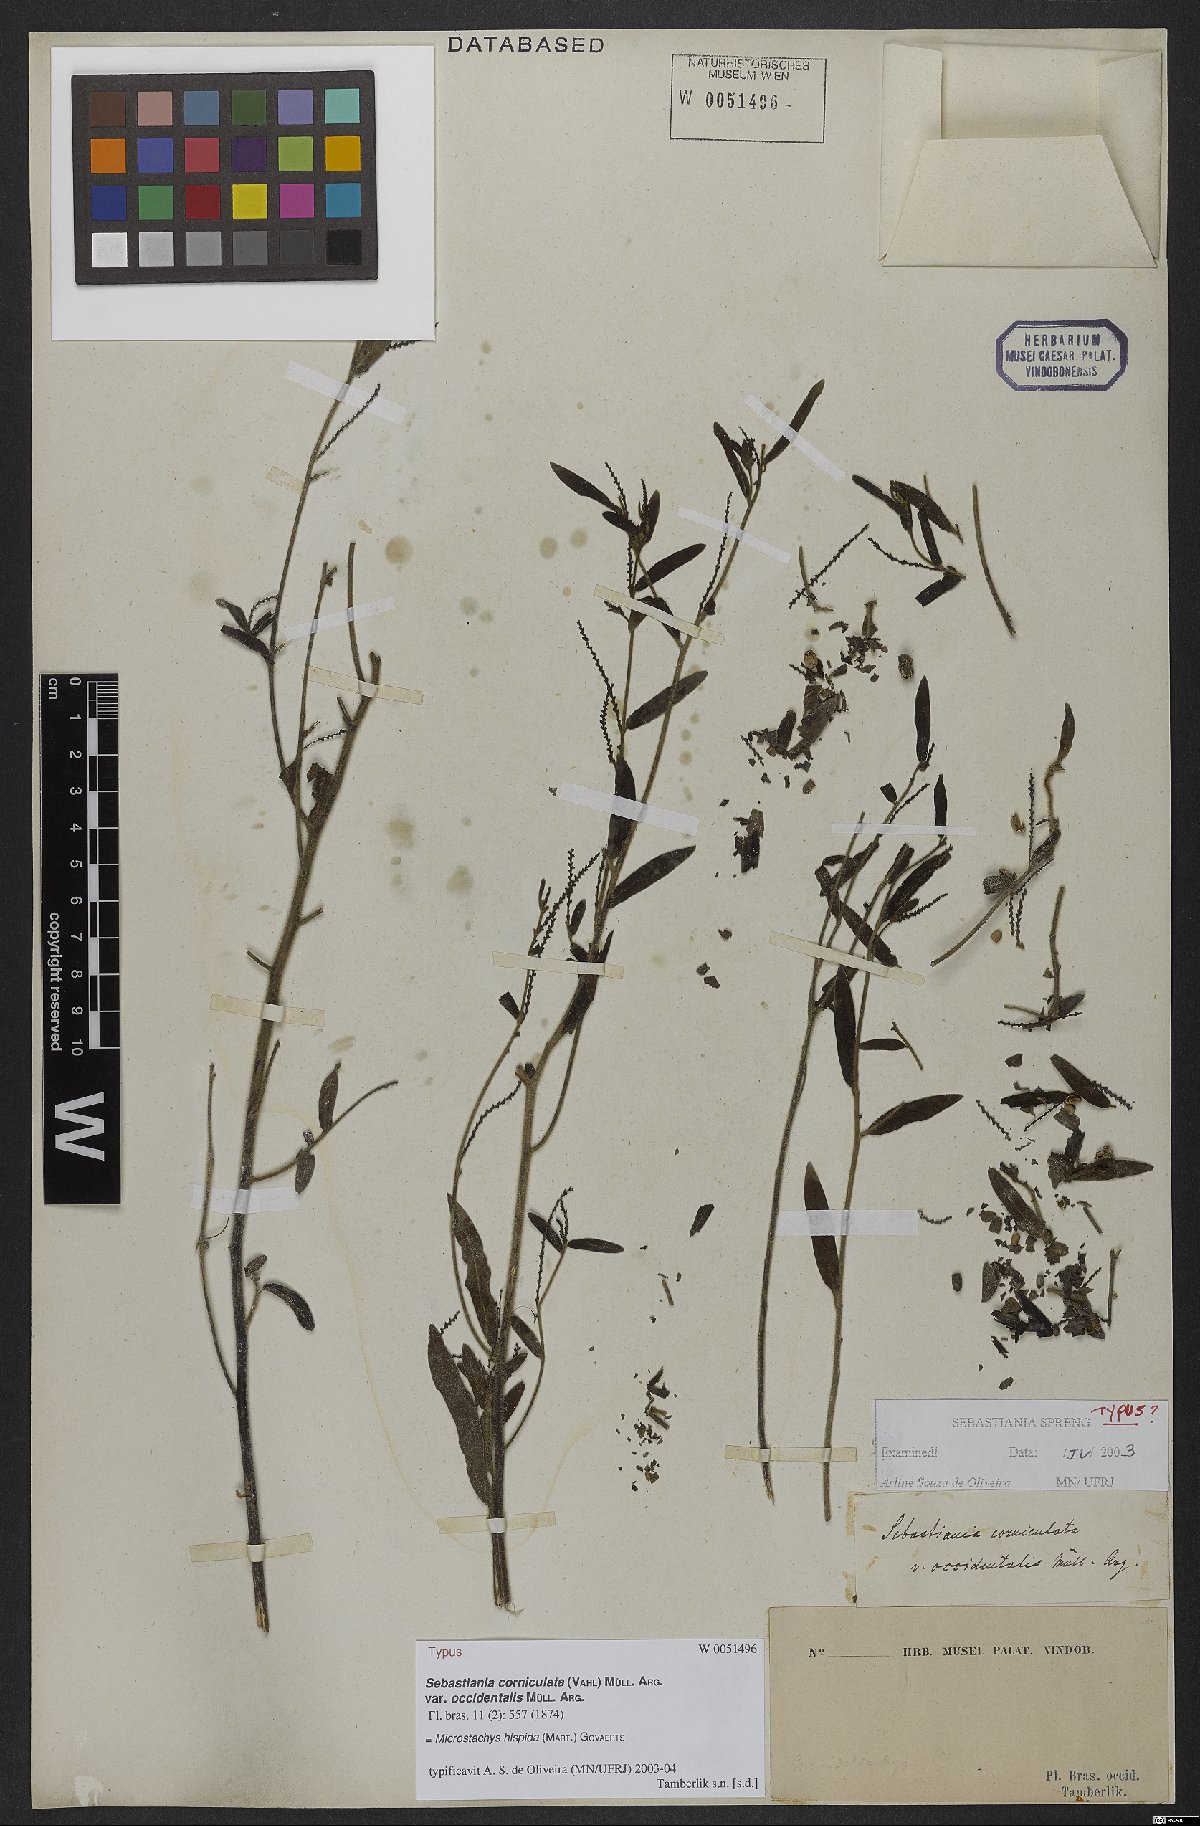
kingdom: Plantae
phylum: Tracheophyta
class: Magnoliopsida
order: Malpighiales
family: Euphorbiaceae
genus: Microstachys
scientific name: Microstachys hispida
